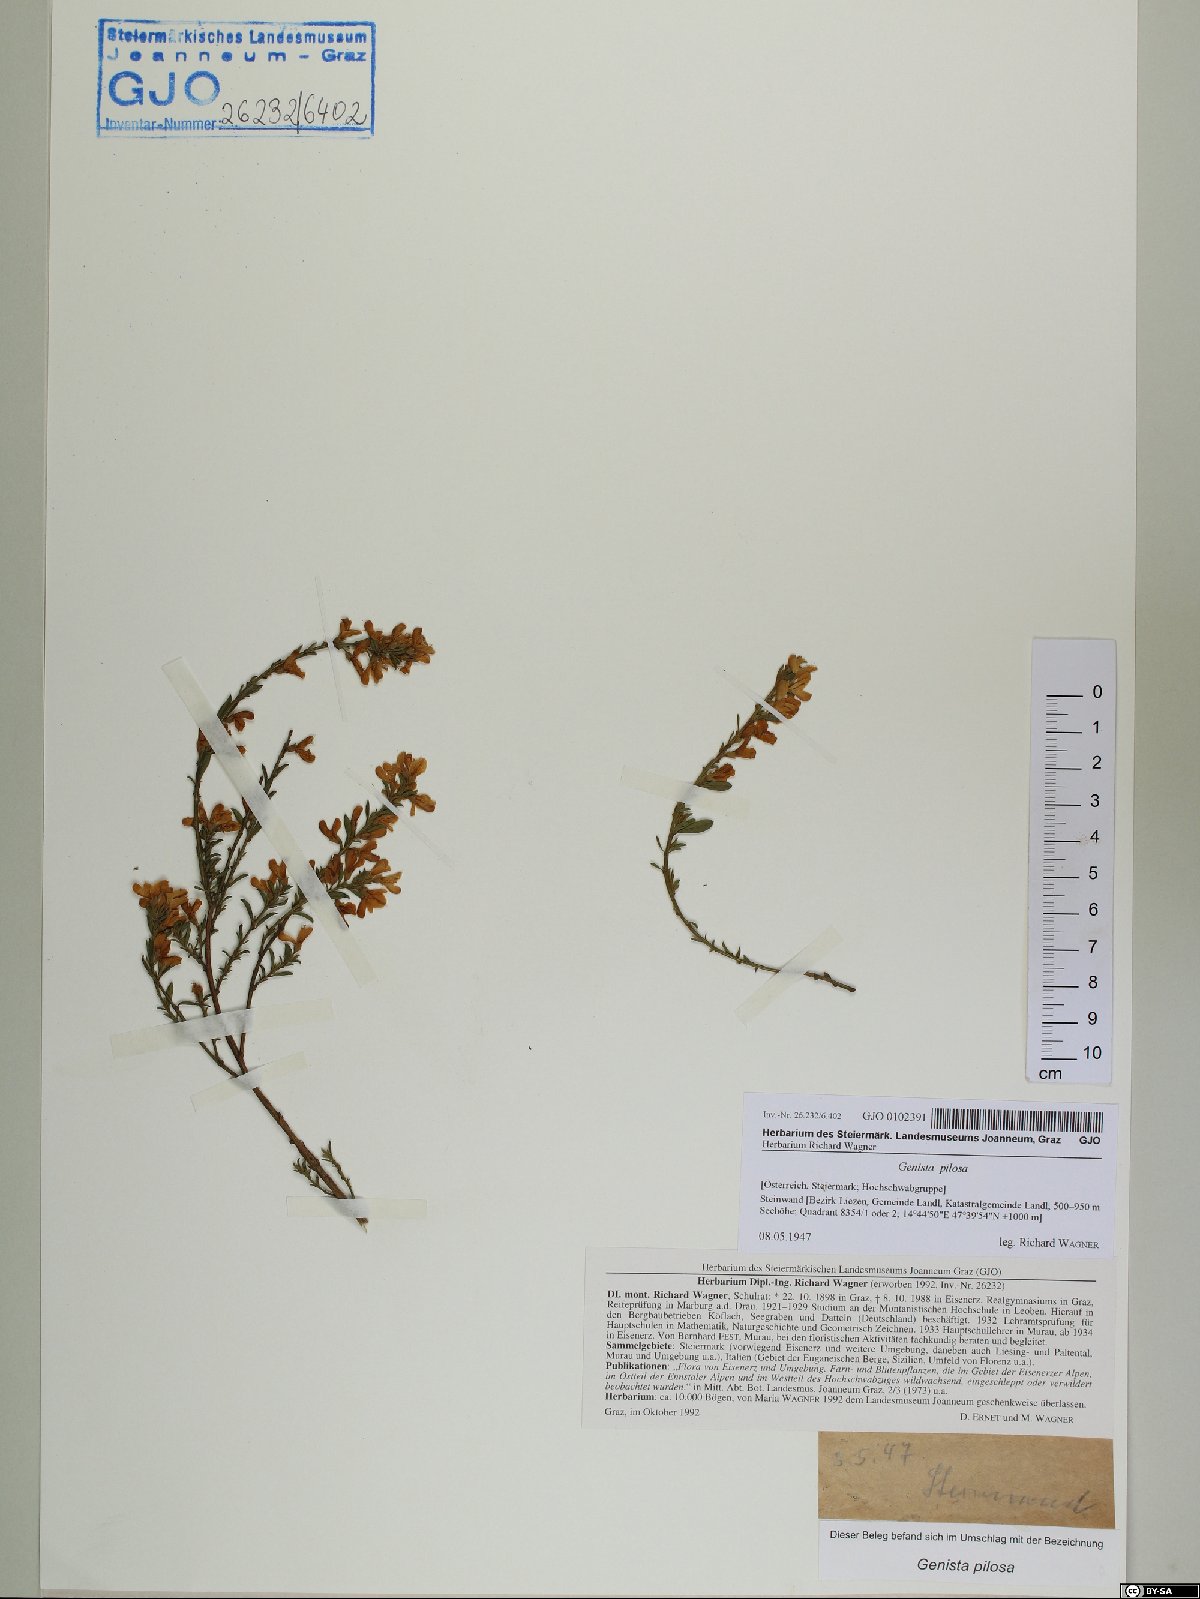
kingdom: Plantae
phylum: Tracheophyta
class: Magnoliopsida
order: Fabales
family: Fabaceae
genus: Genista
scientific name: Genista pilosa
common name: Hairy greenweed
